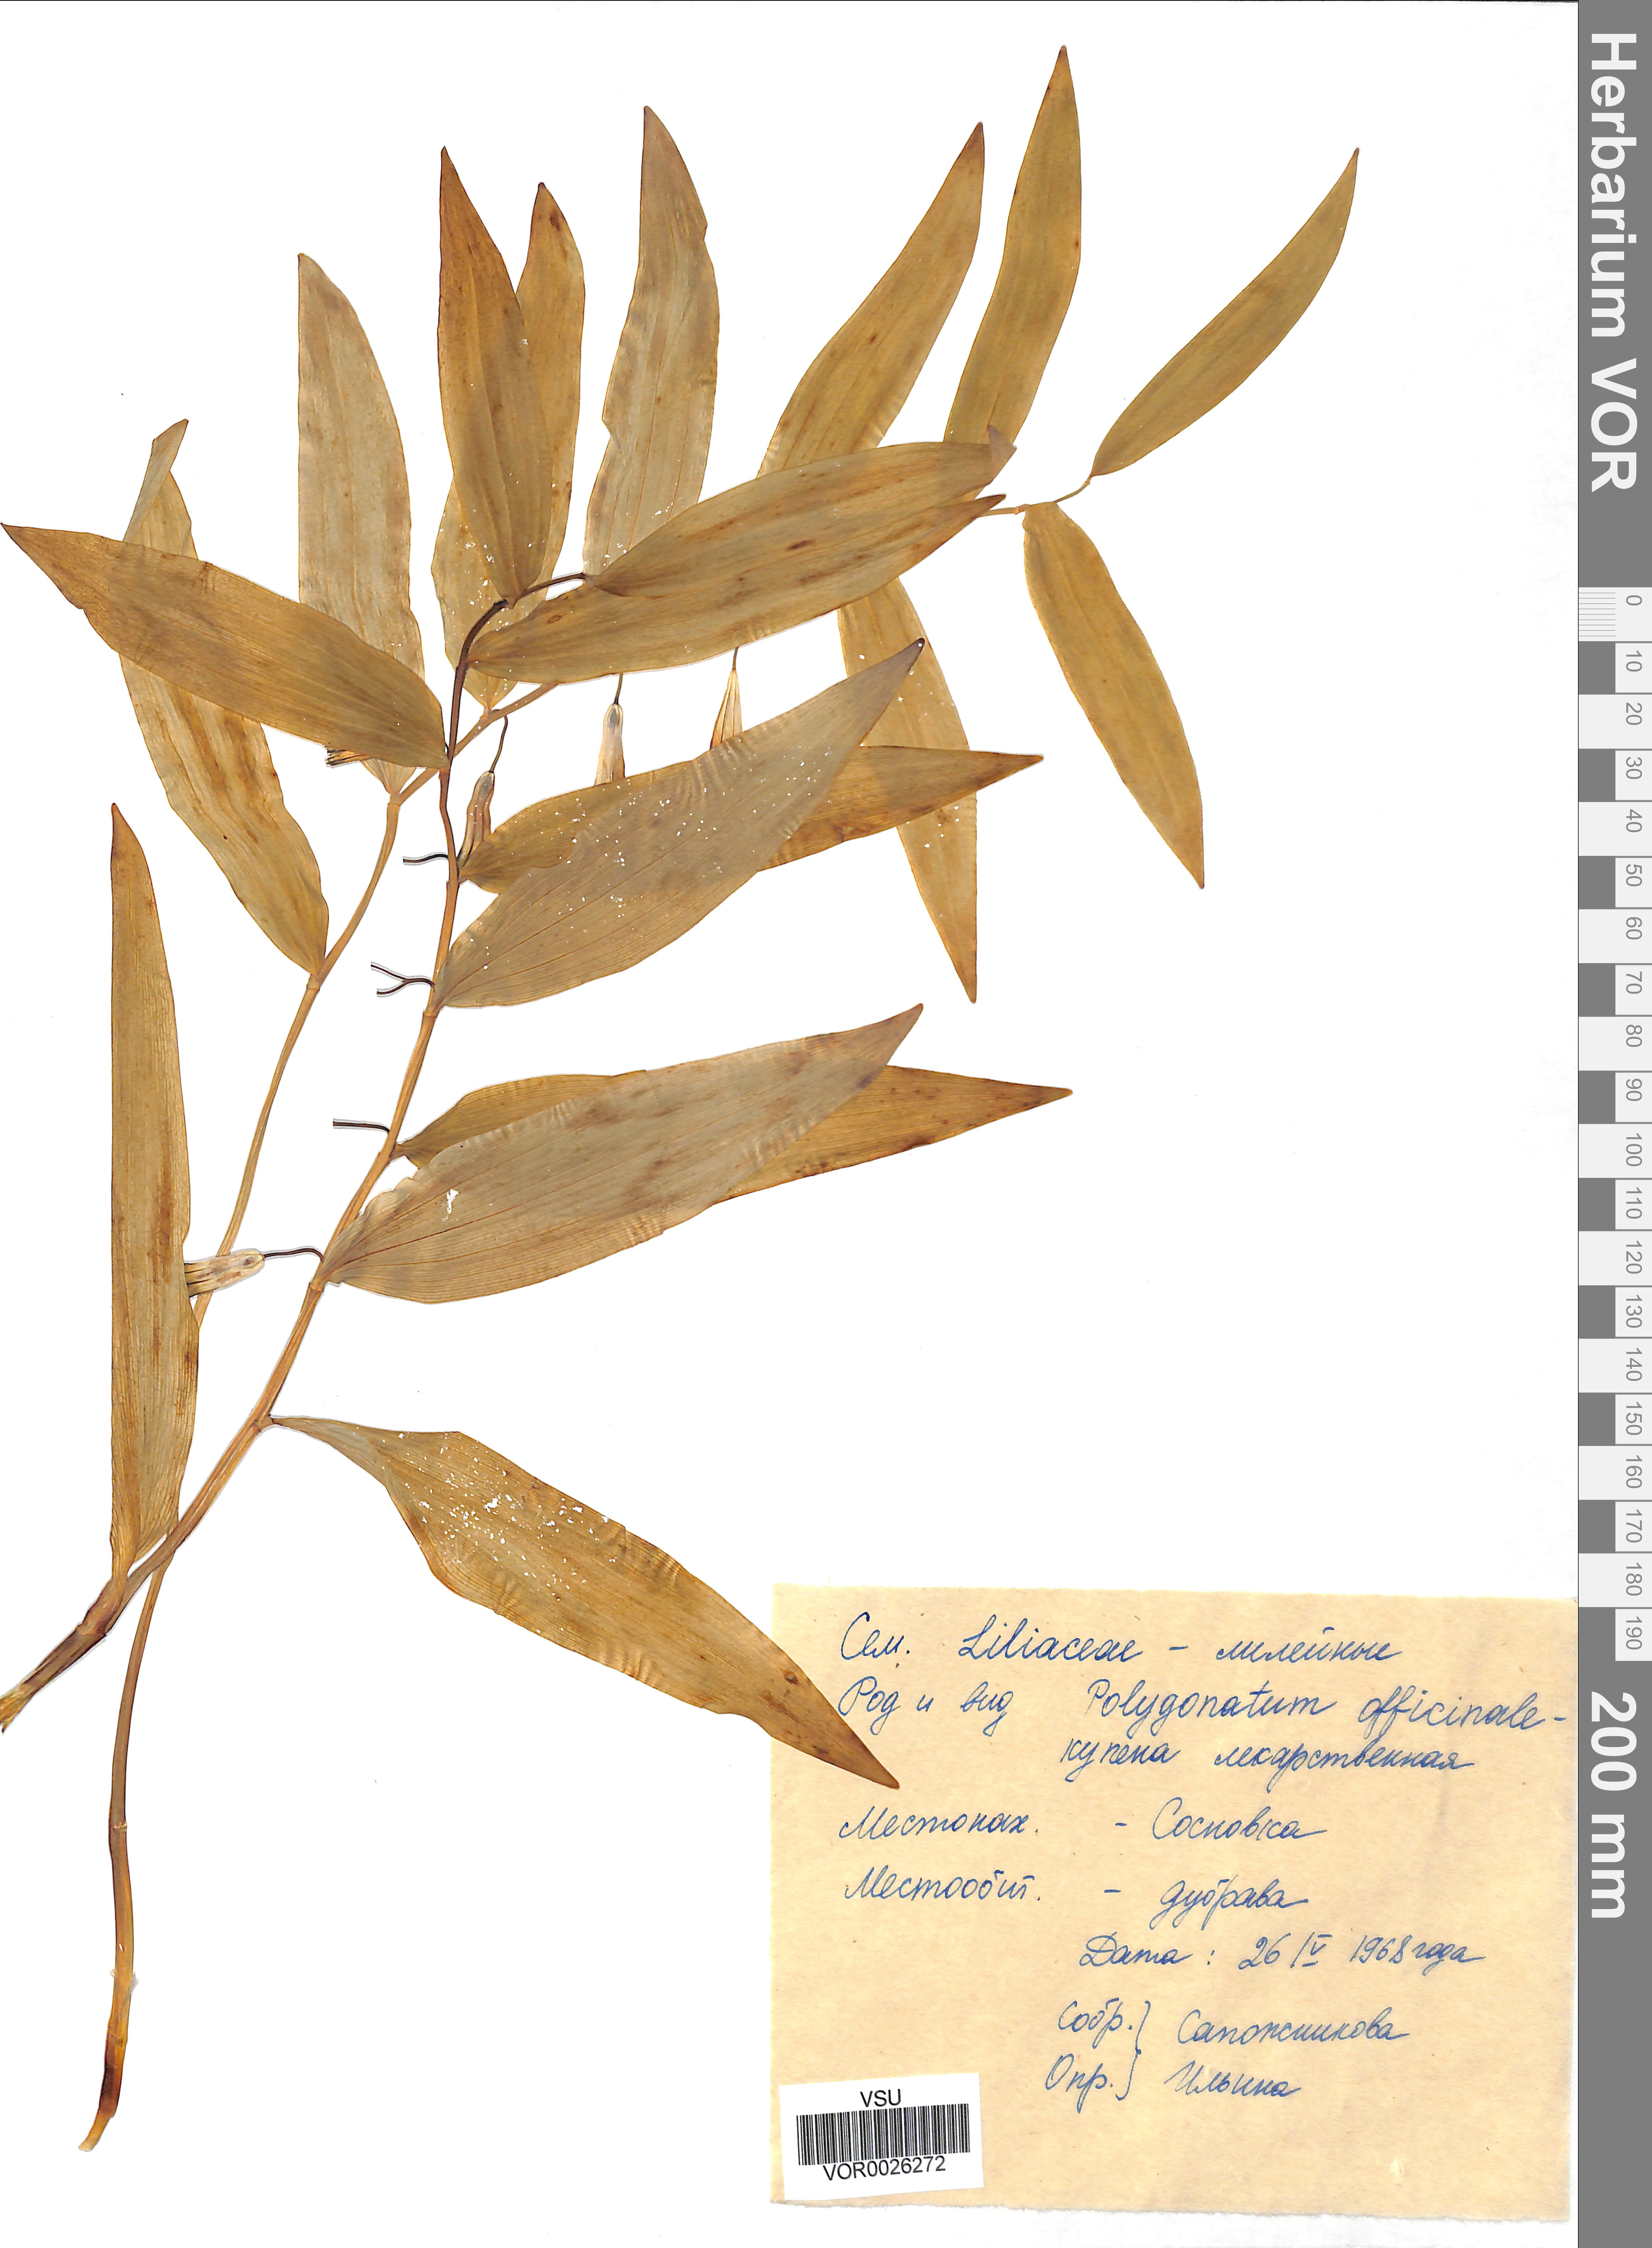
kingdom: Plantae
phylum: Tracheophyta
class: Liliopsida
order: Asparagales
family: Asparagaceae
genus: Polygonatum
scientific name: Polygonatum odoratum
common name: Angular solomon's-seal
